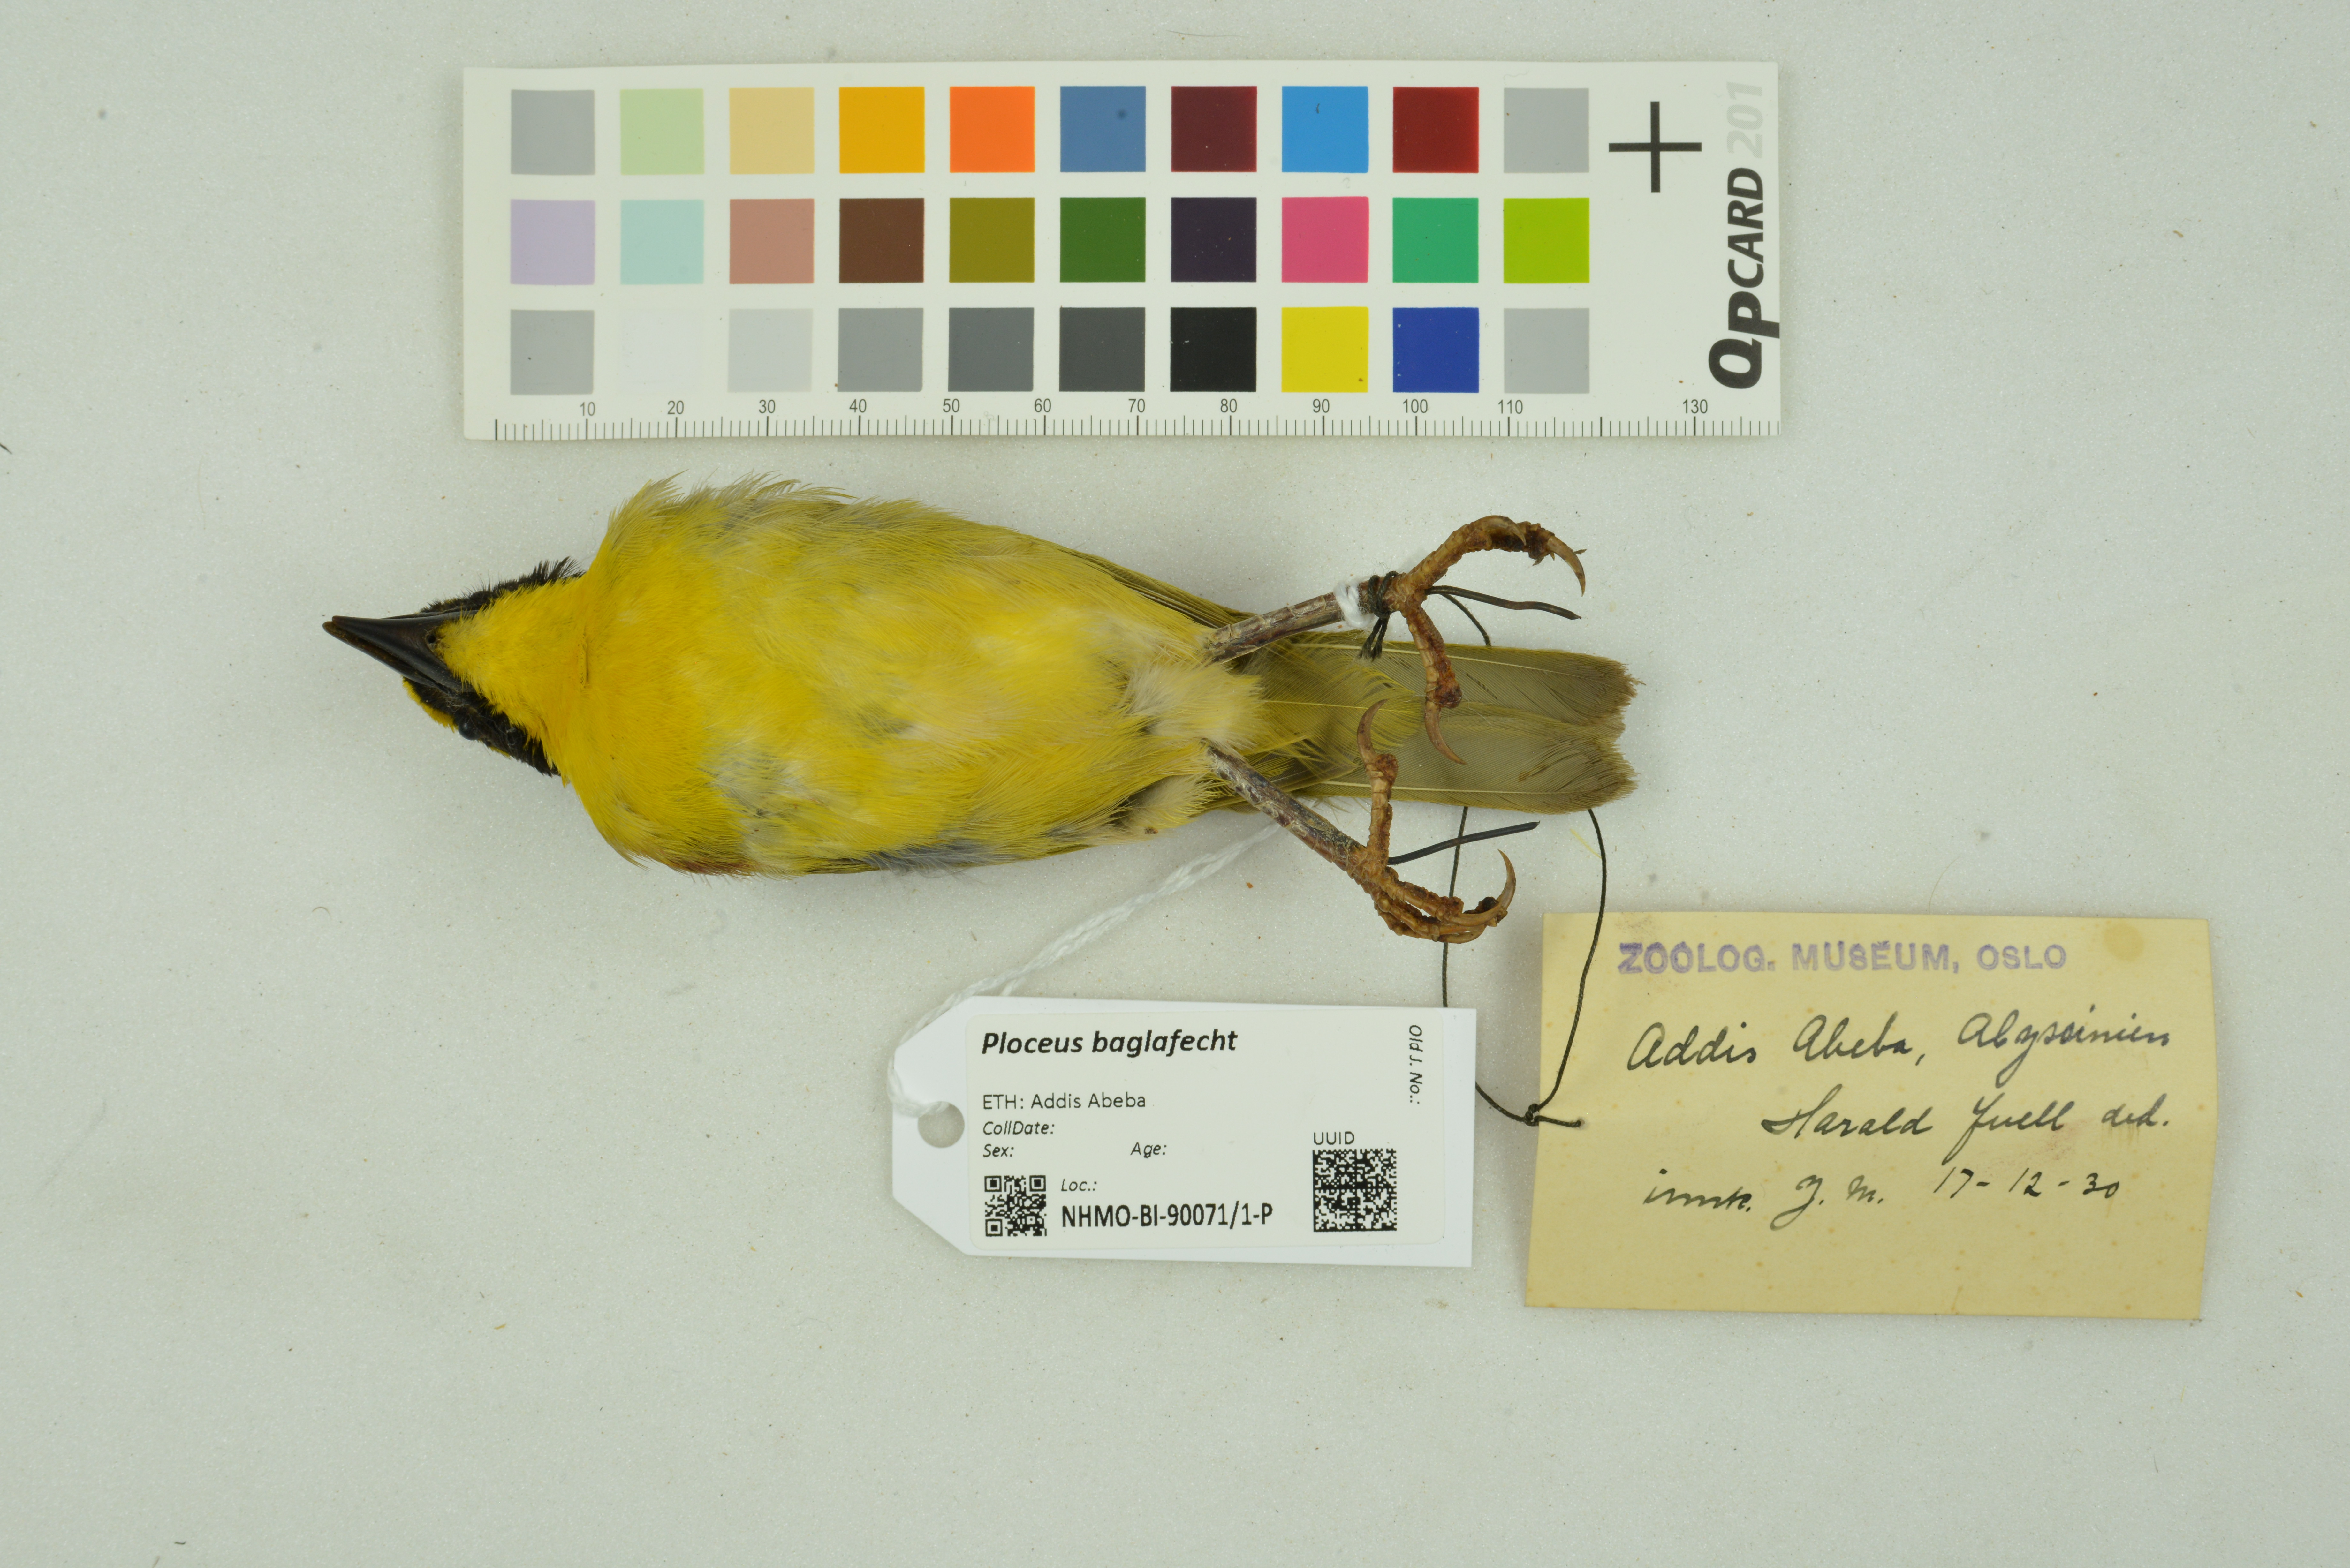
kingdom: Animalia
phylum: Chordata
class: Aves
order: Passeriformes
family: Ploceidae
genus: Ploceus
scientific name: Ploceus baglafecht
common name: Baglafecht weaver
